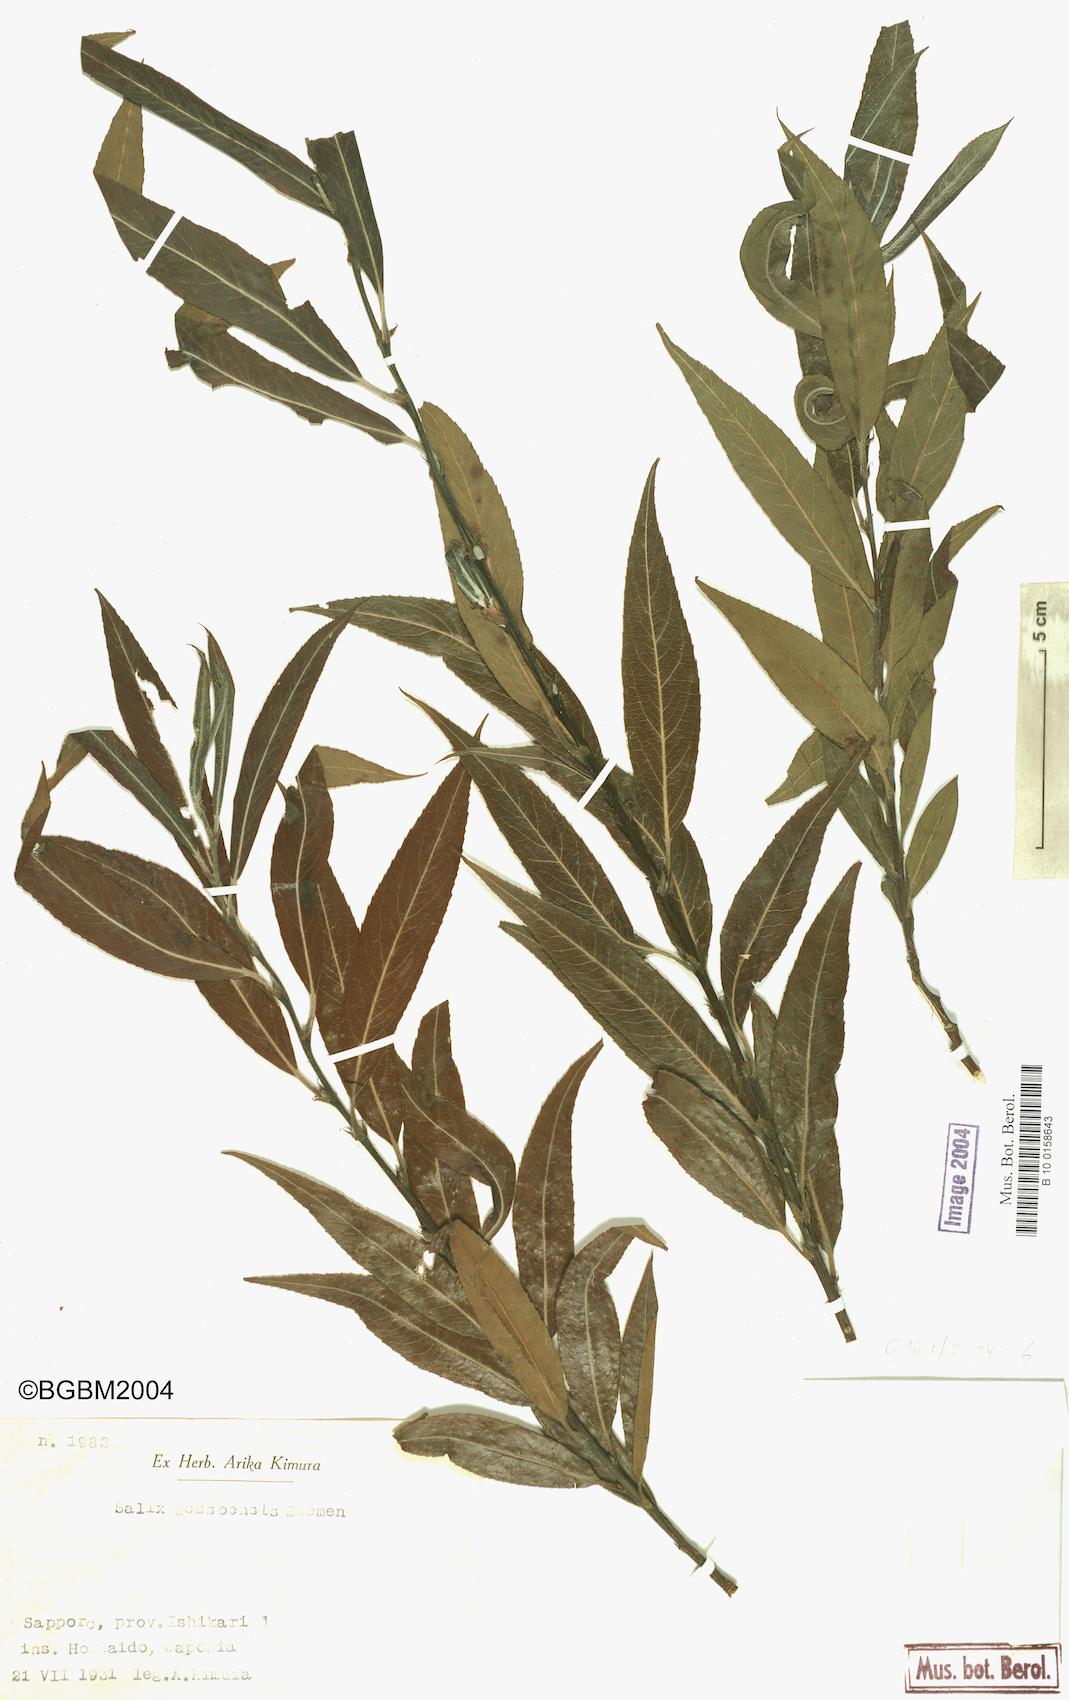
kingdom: Plantae
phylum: Tracheophyta
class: Magnoliopsida
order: Malpighiales
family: Salicaceae
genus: Salix
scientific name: Salix jessoensis
